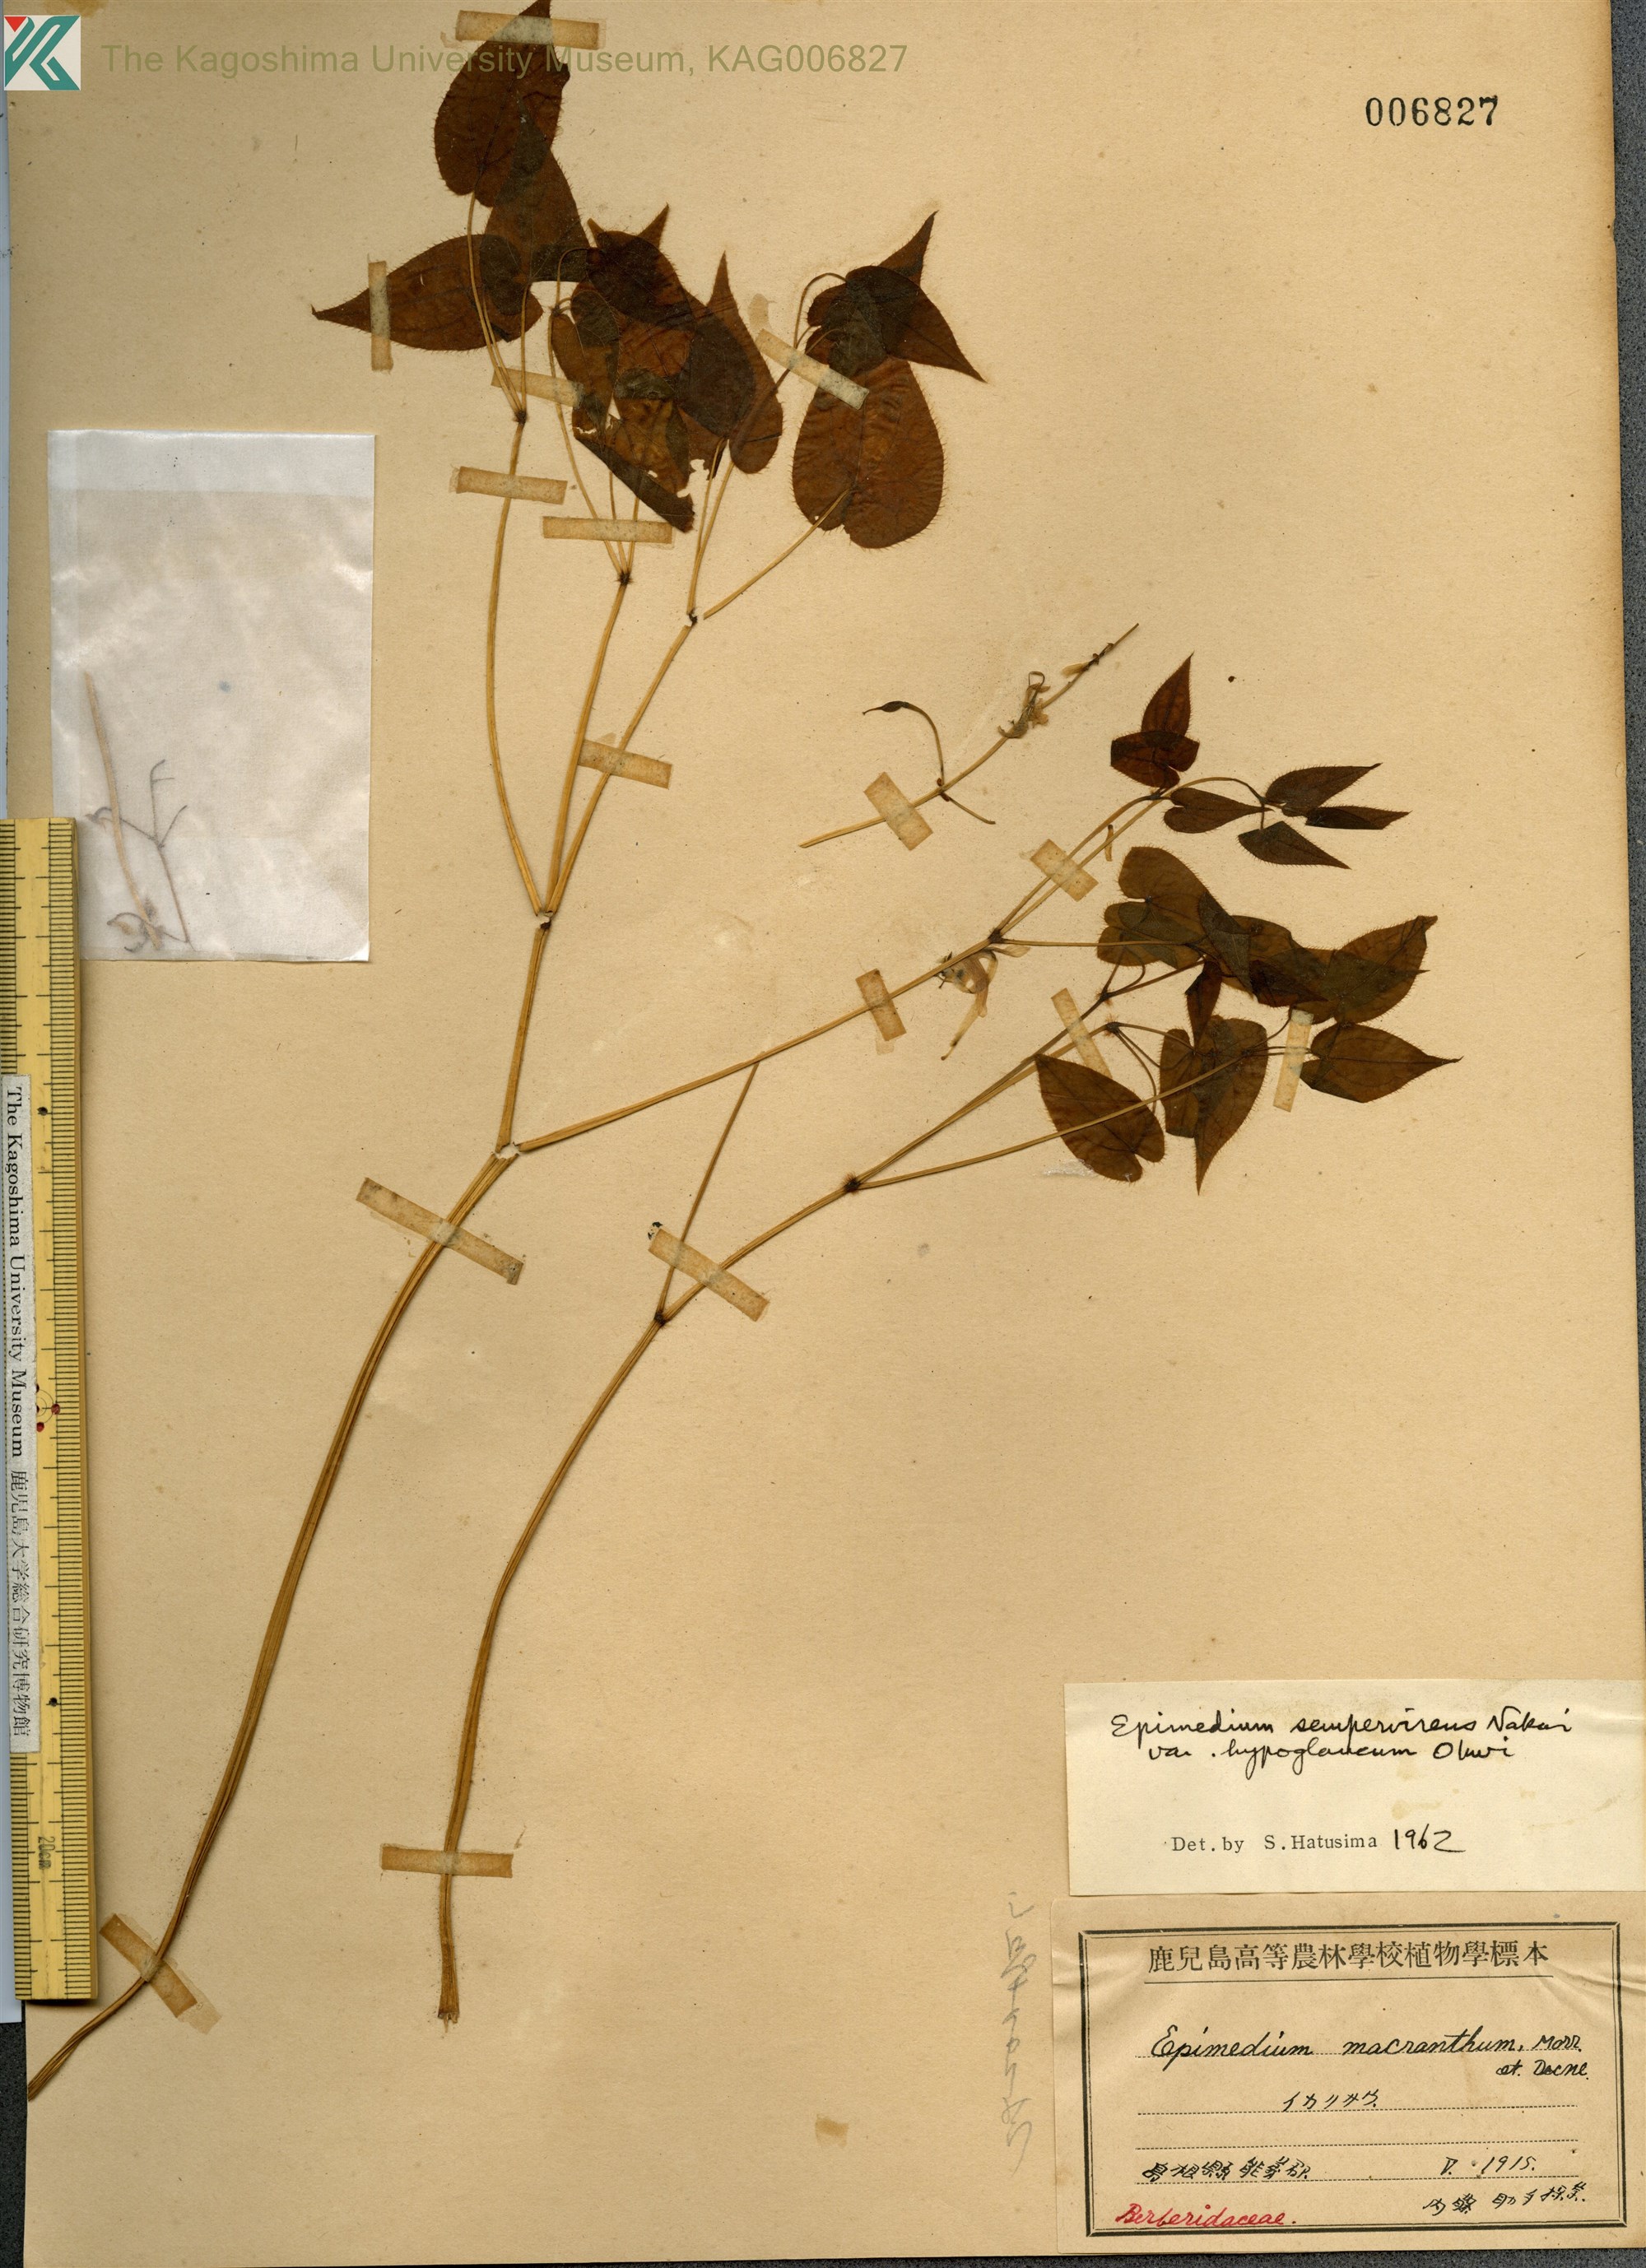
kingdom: Plantae
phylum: Tracheophyta
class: Magnoliopsida
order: Ranunculales
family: Berberidaceae
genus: Epimedium
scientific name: Epimedium sempervirens
